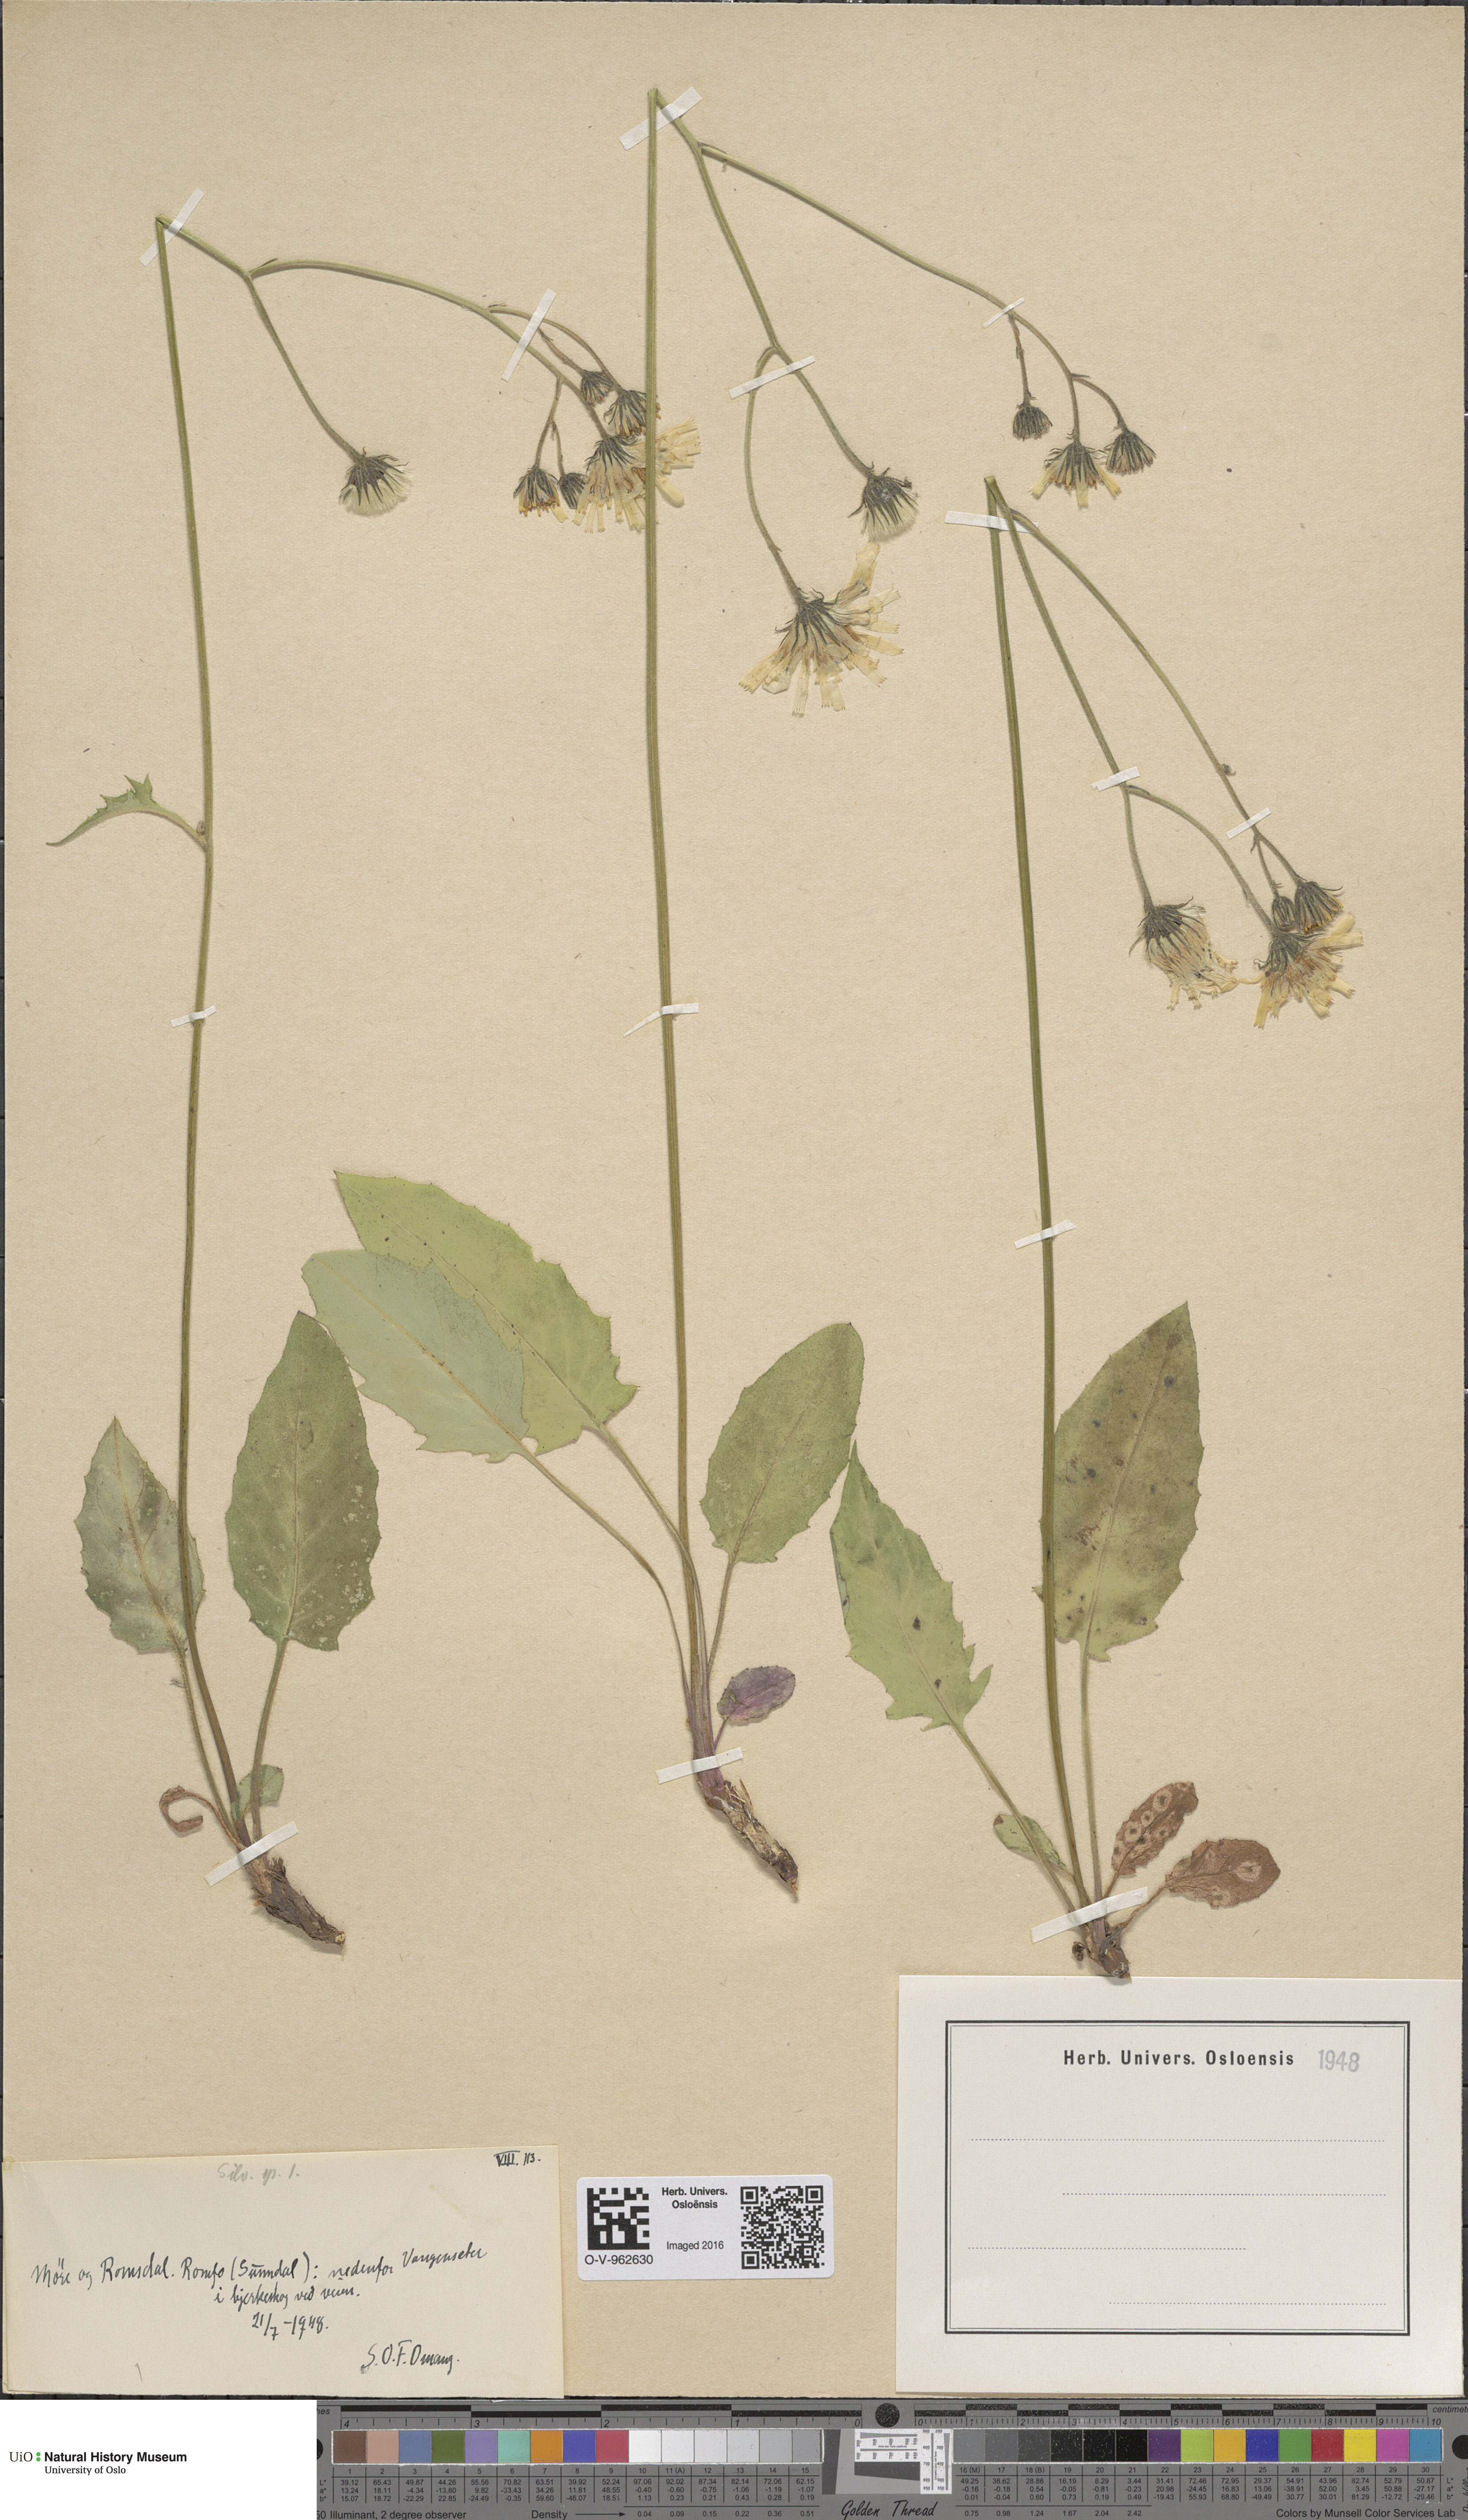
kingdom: Plantae
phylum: Tracheophyta
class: Magnoliopsida
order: Asterales
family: Asteraceae
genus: Hieracium
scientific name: Hieracium
